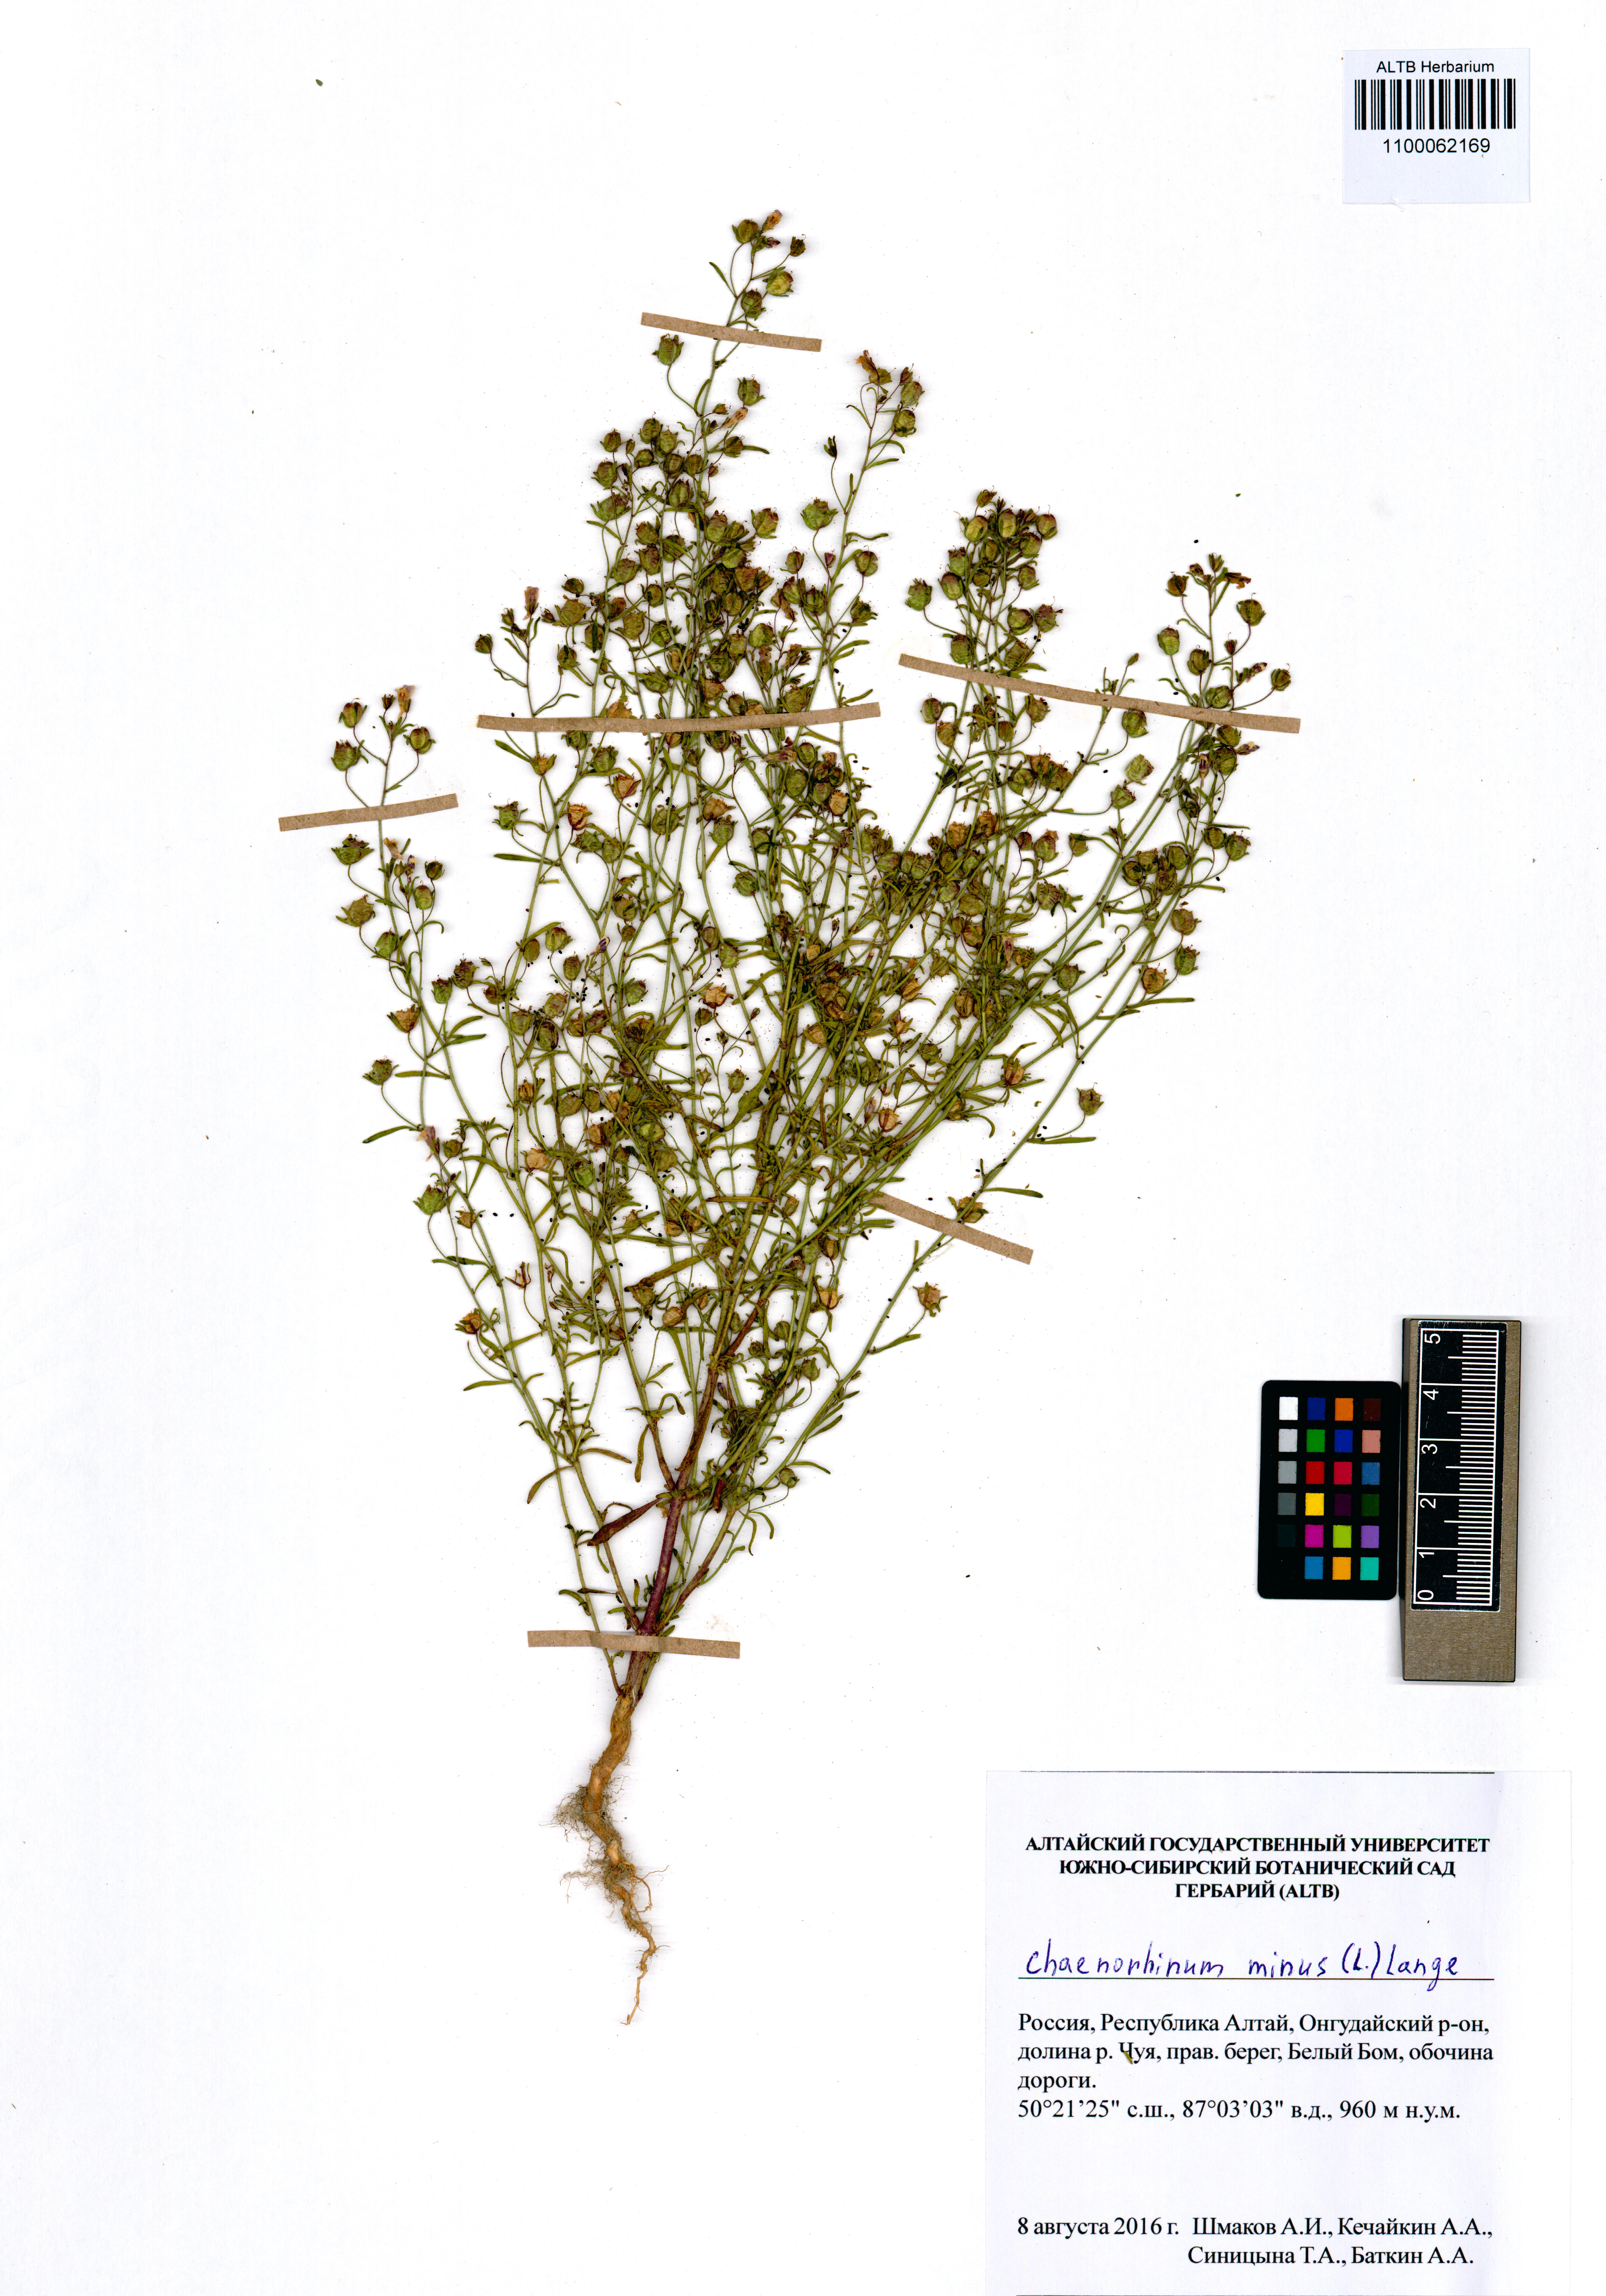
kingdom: Plantae
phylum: Tracheophyta
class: Magnoliopsida
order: Lamiales
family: Plantaginaceae
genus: Chaenorhinum
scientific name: Chaenorhinum minus
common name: Dwarf snapdragon
